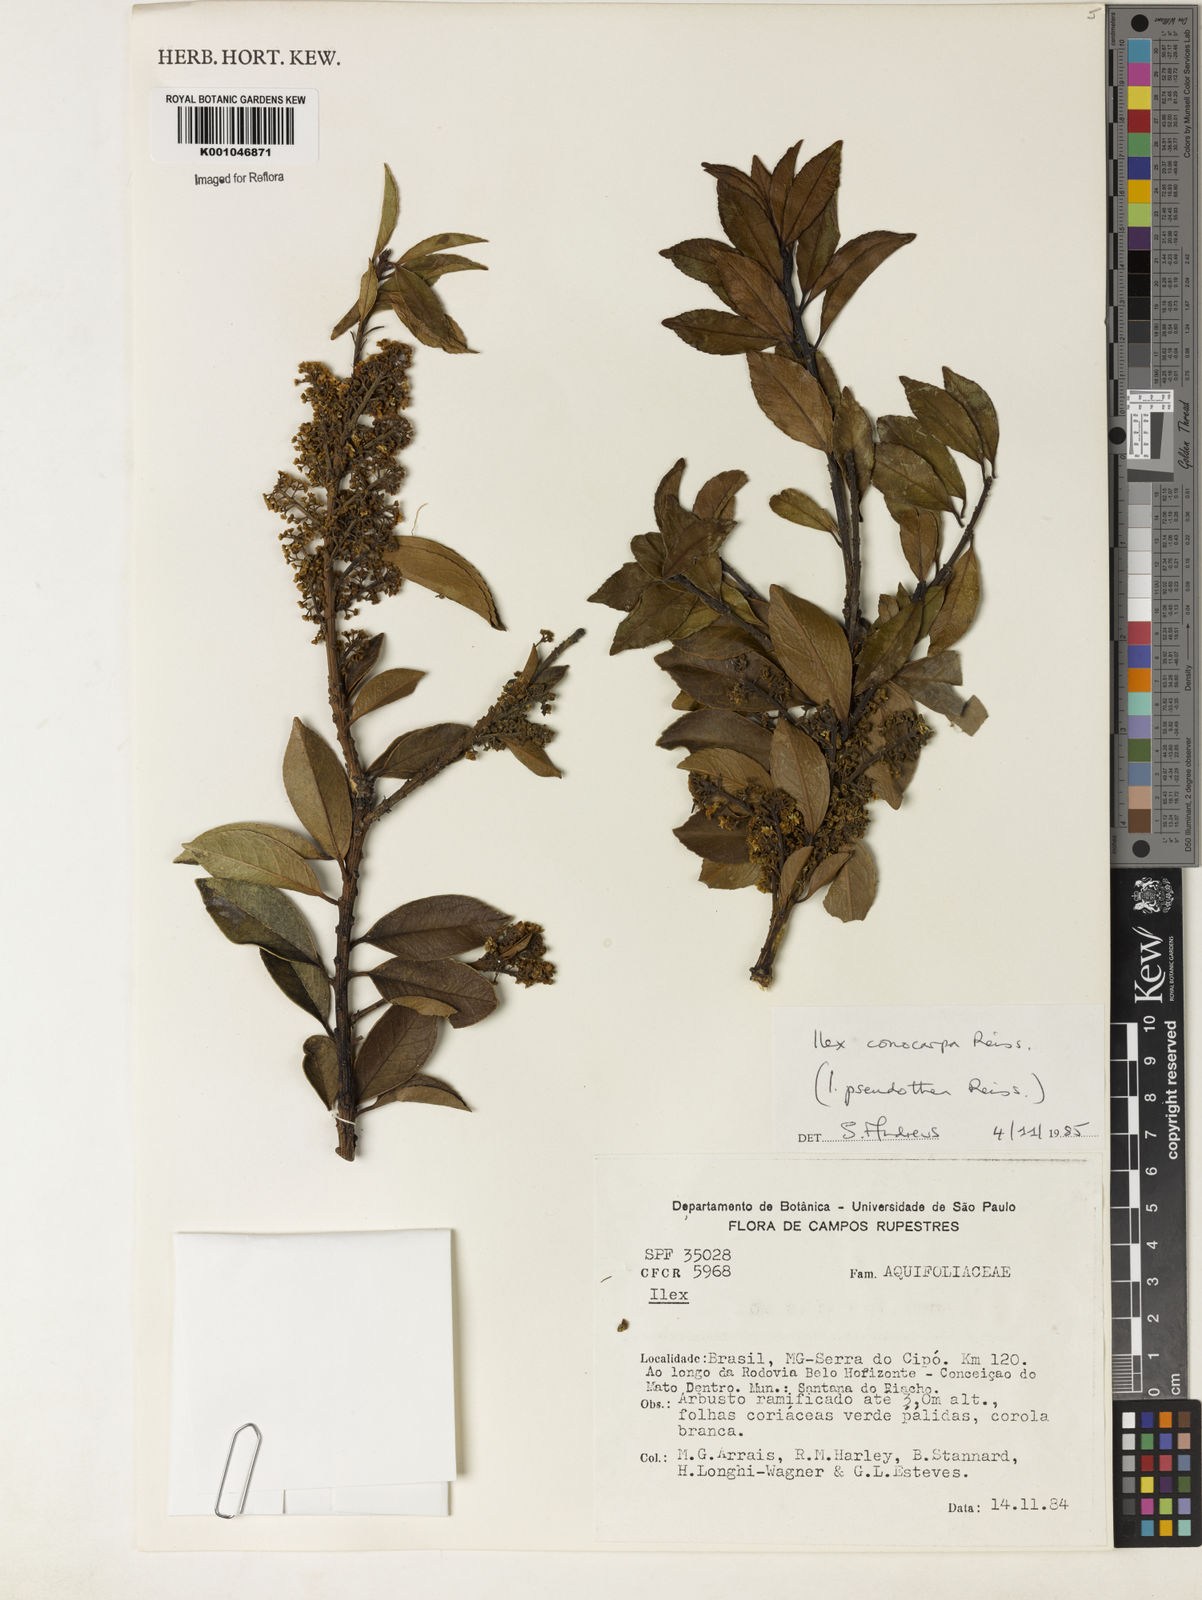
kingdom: Plantae
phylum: Tracheophyta
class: Magnoliopsida
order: Aquifoliales
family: Aquifoliaceae
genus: Ilex
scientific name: Ilex conocarpa
